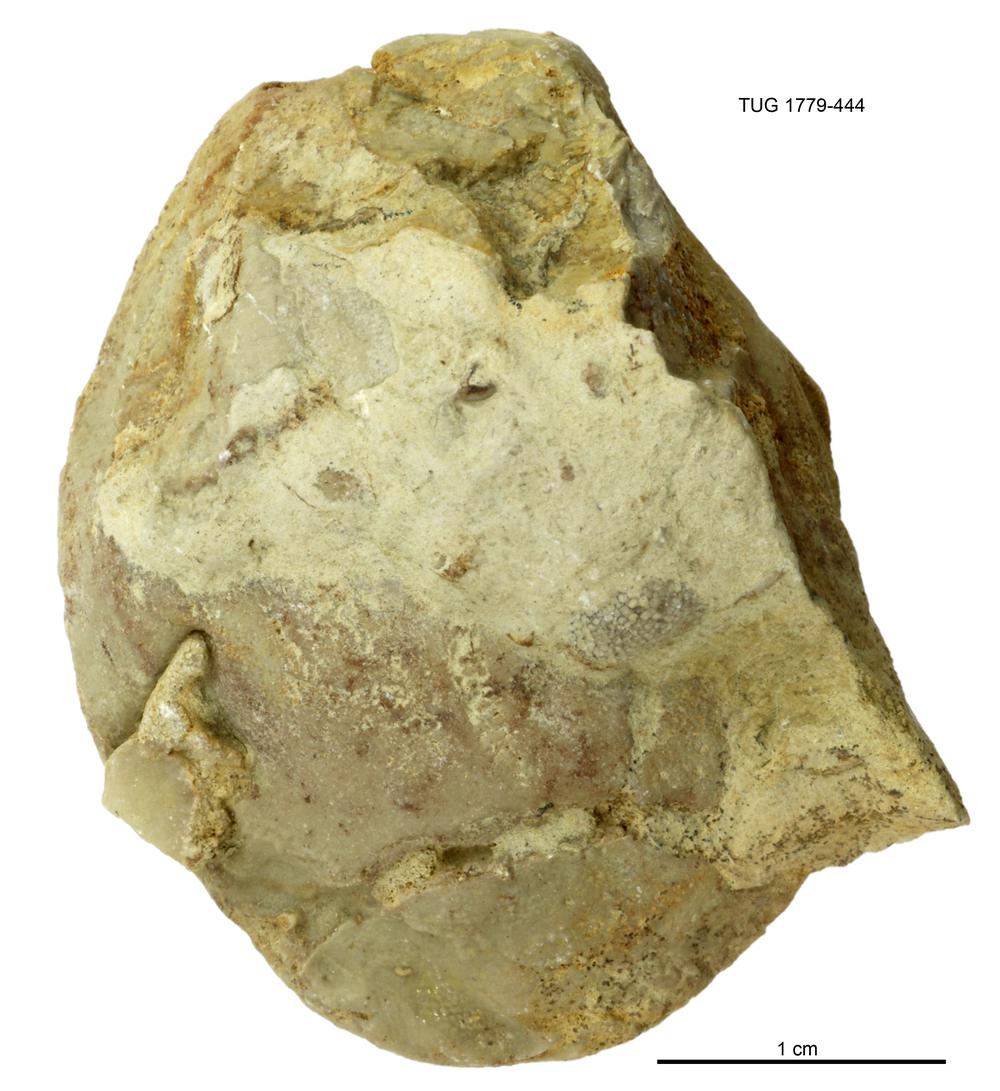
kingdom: Animalia
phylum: Mollusca
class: Bivalvia
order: Modiomorphida
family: Modiomorphidae
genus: Modiolopsis
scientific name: Modiolopsis
